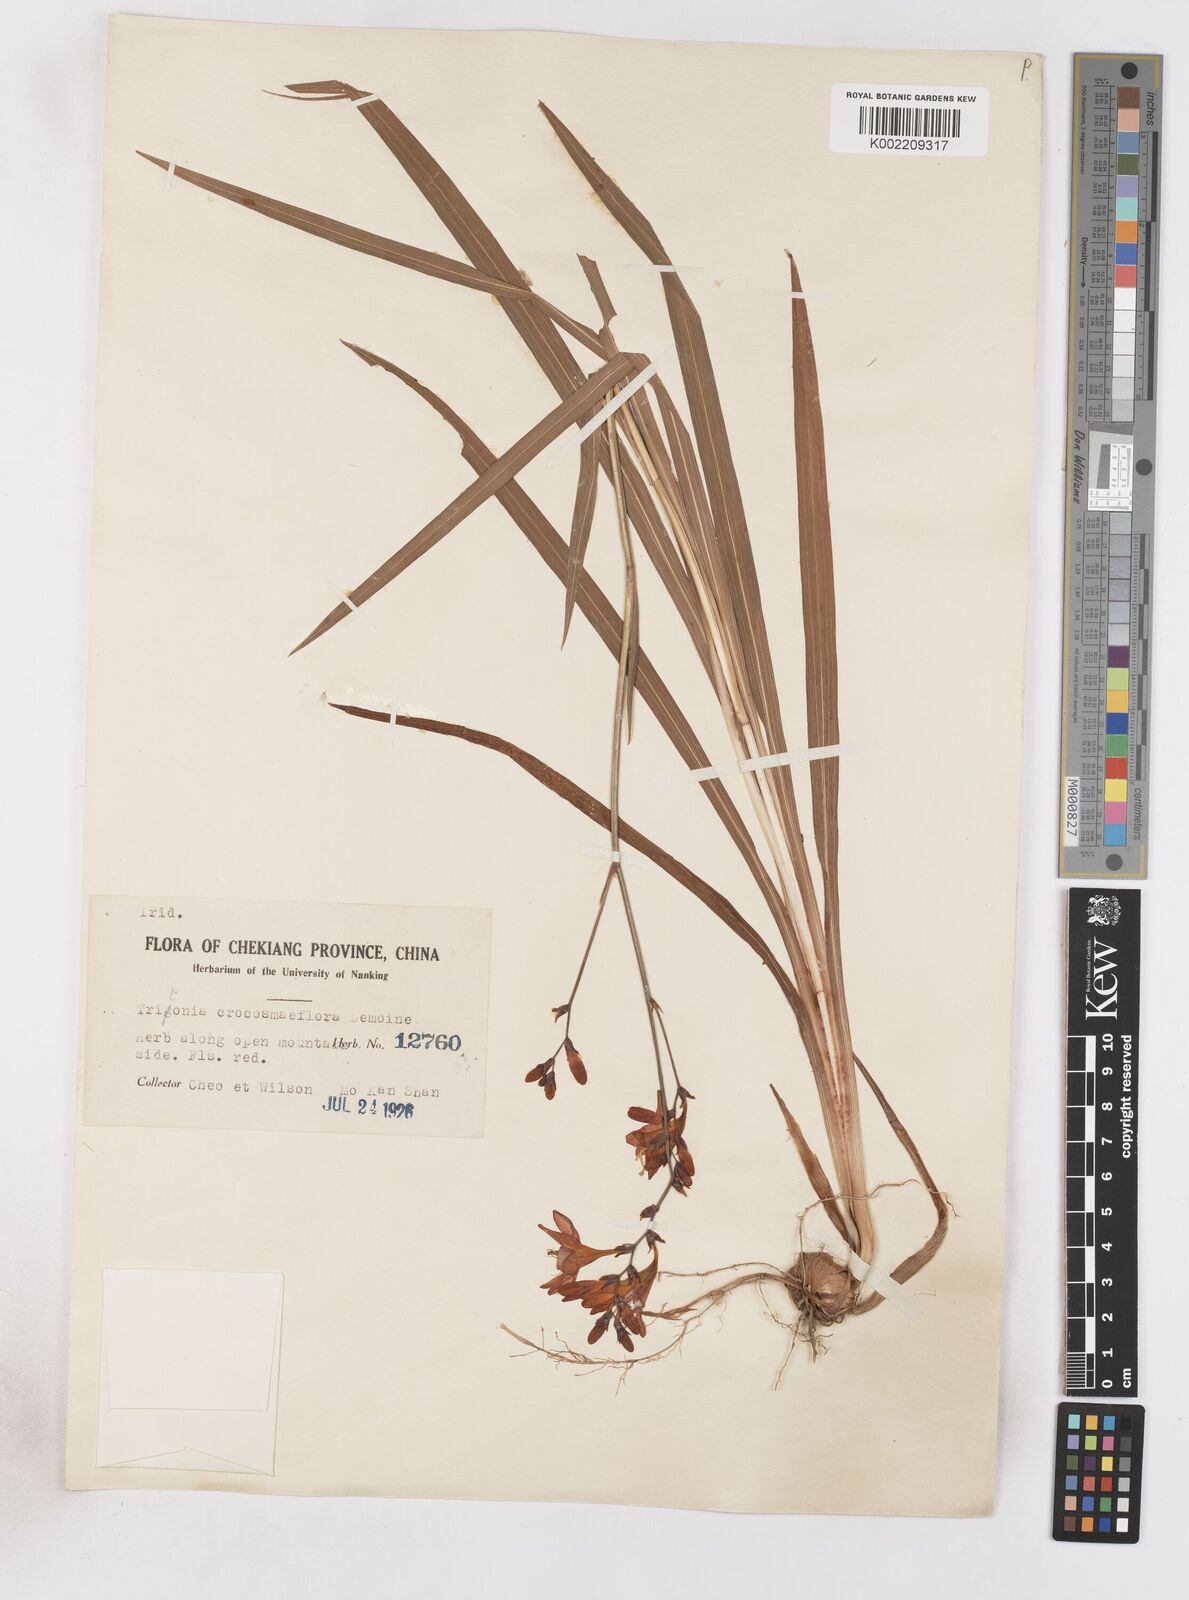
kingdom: Plantae
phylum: Tracheophyta
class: Liliopsida
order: Asparagales
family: Iridaceae
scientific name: Iridaceae
